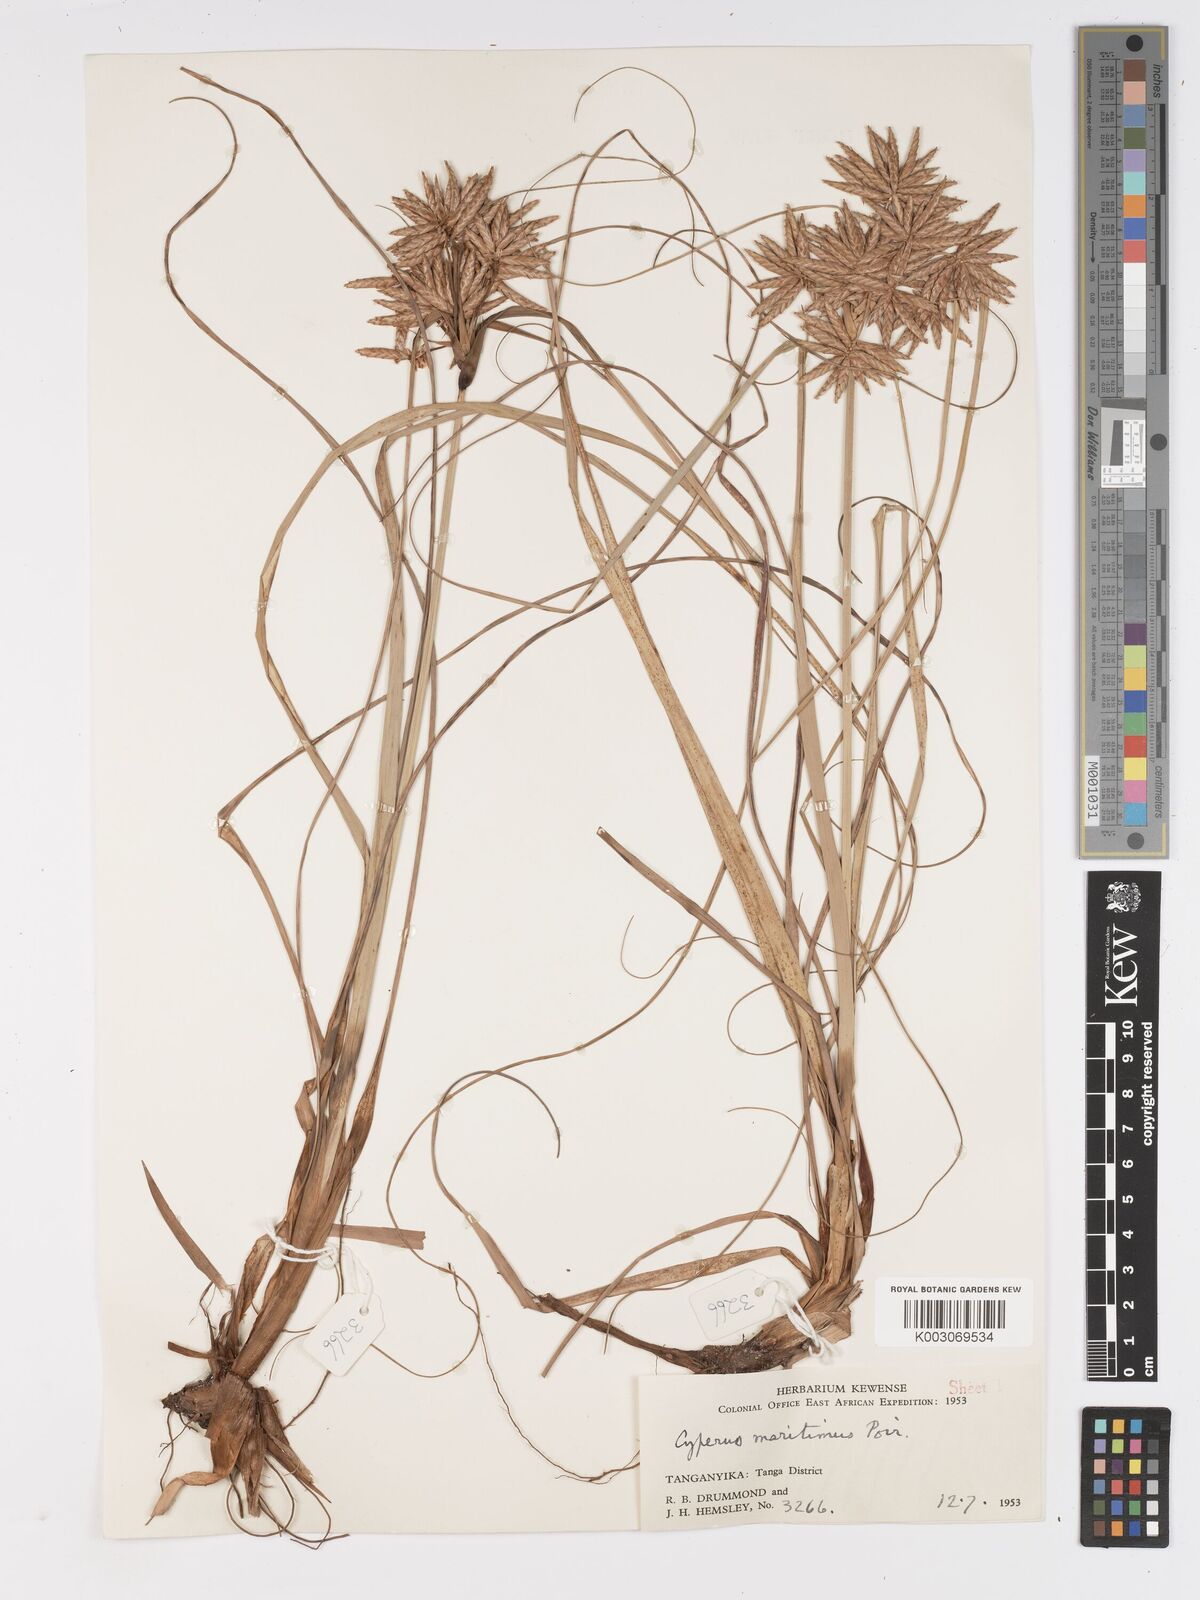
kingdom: Plantae
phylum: Tracheophyta
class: Liliopsida
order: Poales
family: Cyperaceae
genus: Cyperus
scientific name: Cyperus crassipes
